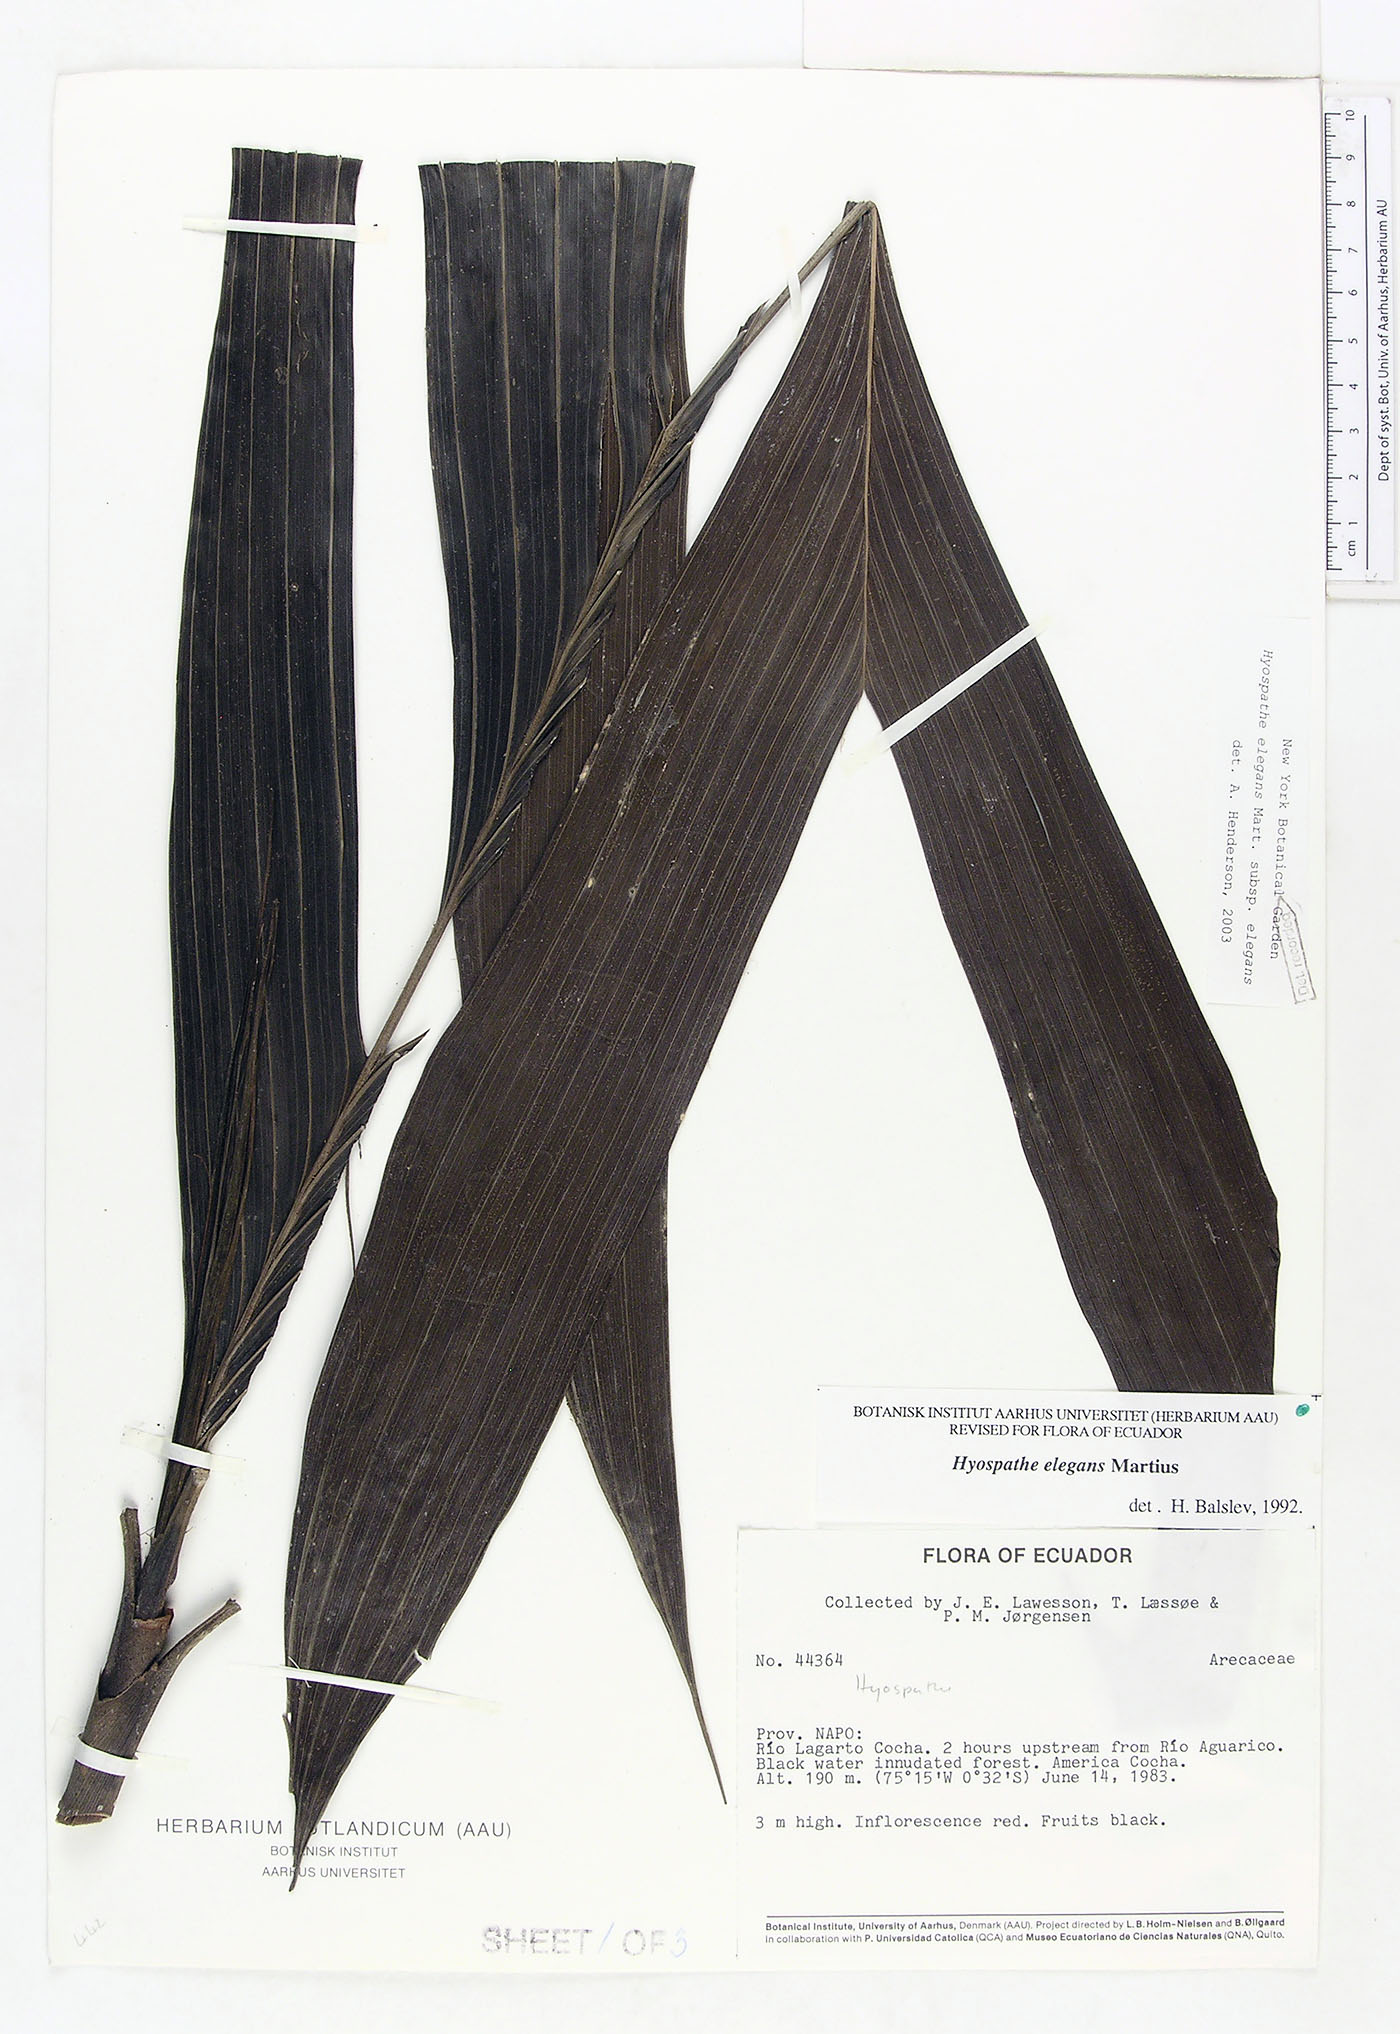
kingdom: Plantae
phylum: Tracheophyta
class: Liliopsida
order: Arecales
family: Arecaceae
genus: Hyospathe
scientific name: Hyospathe elegans
